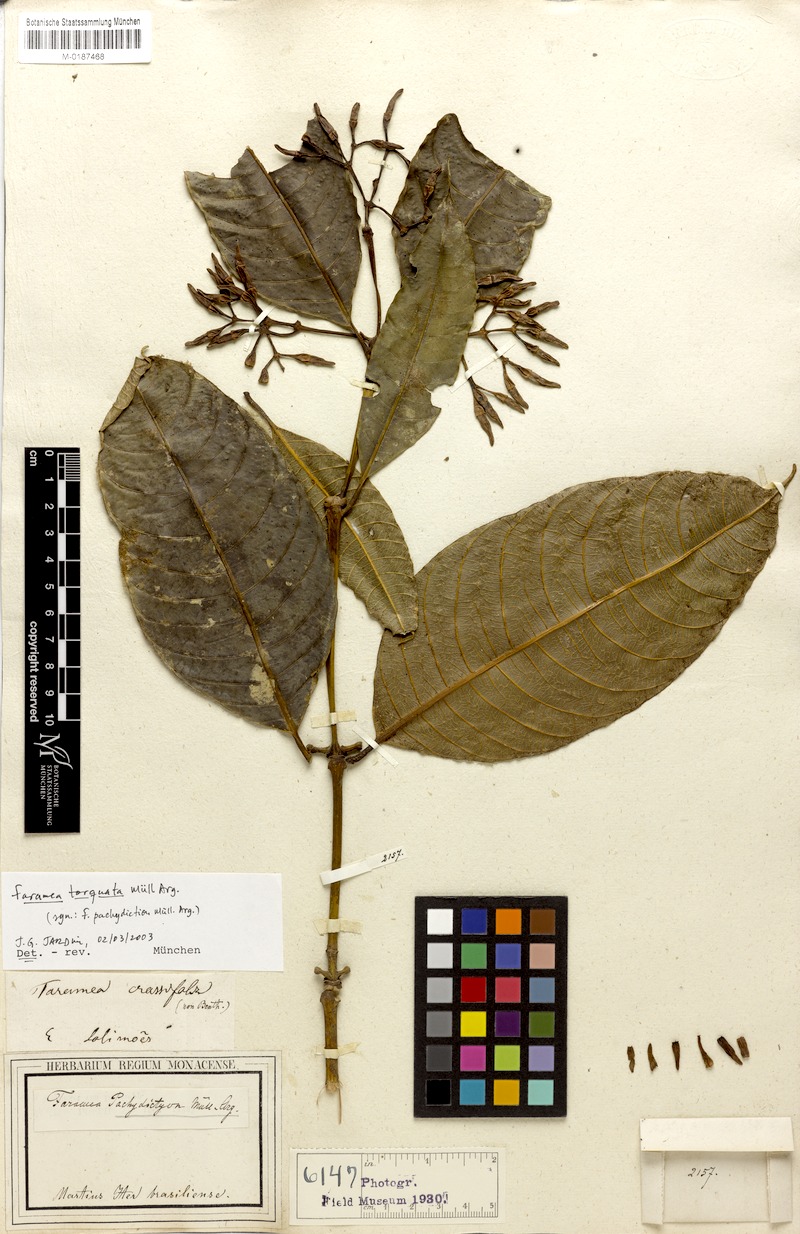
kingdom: Plantae
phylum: Tracheophyta
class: Magnoliopsida
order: Gentianales
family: Rubiaceae
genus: Faramea
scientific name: Faramea torquata
